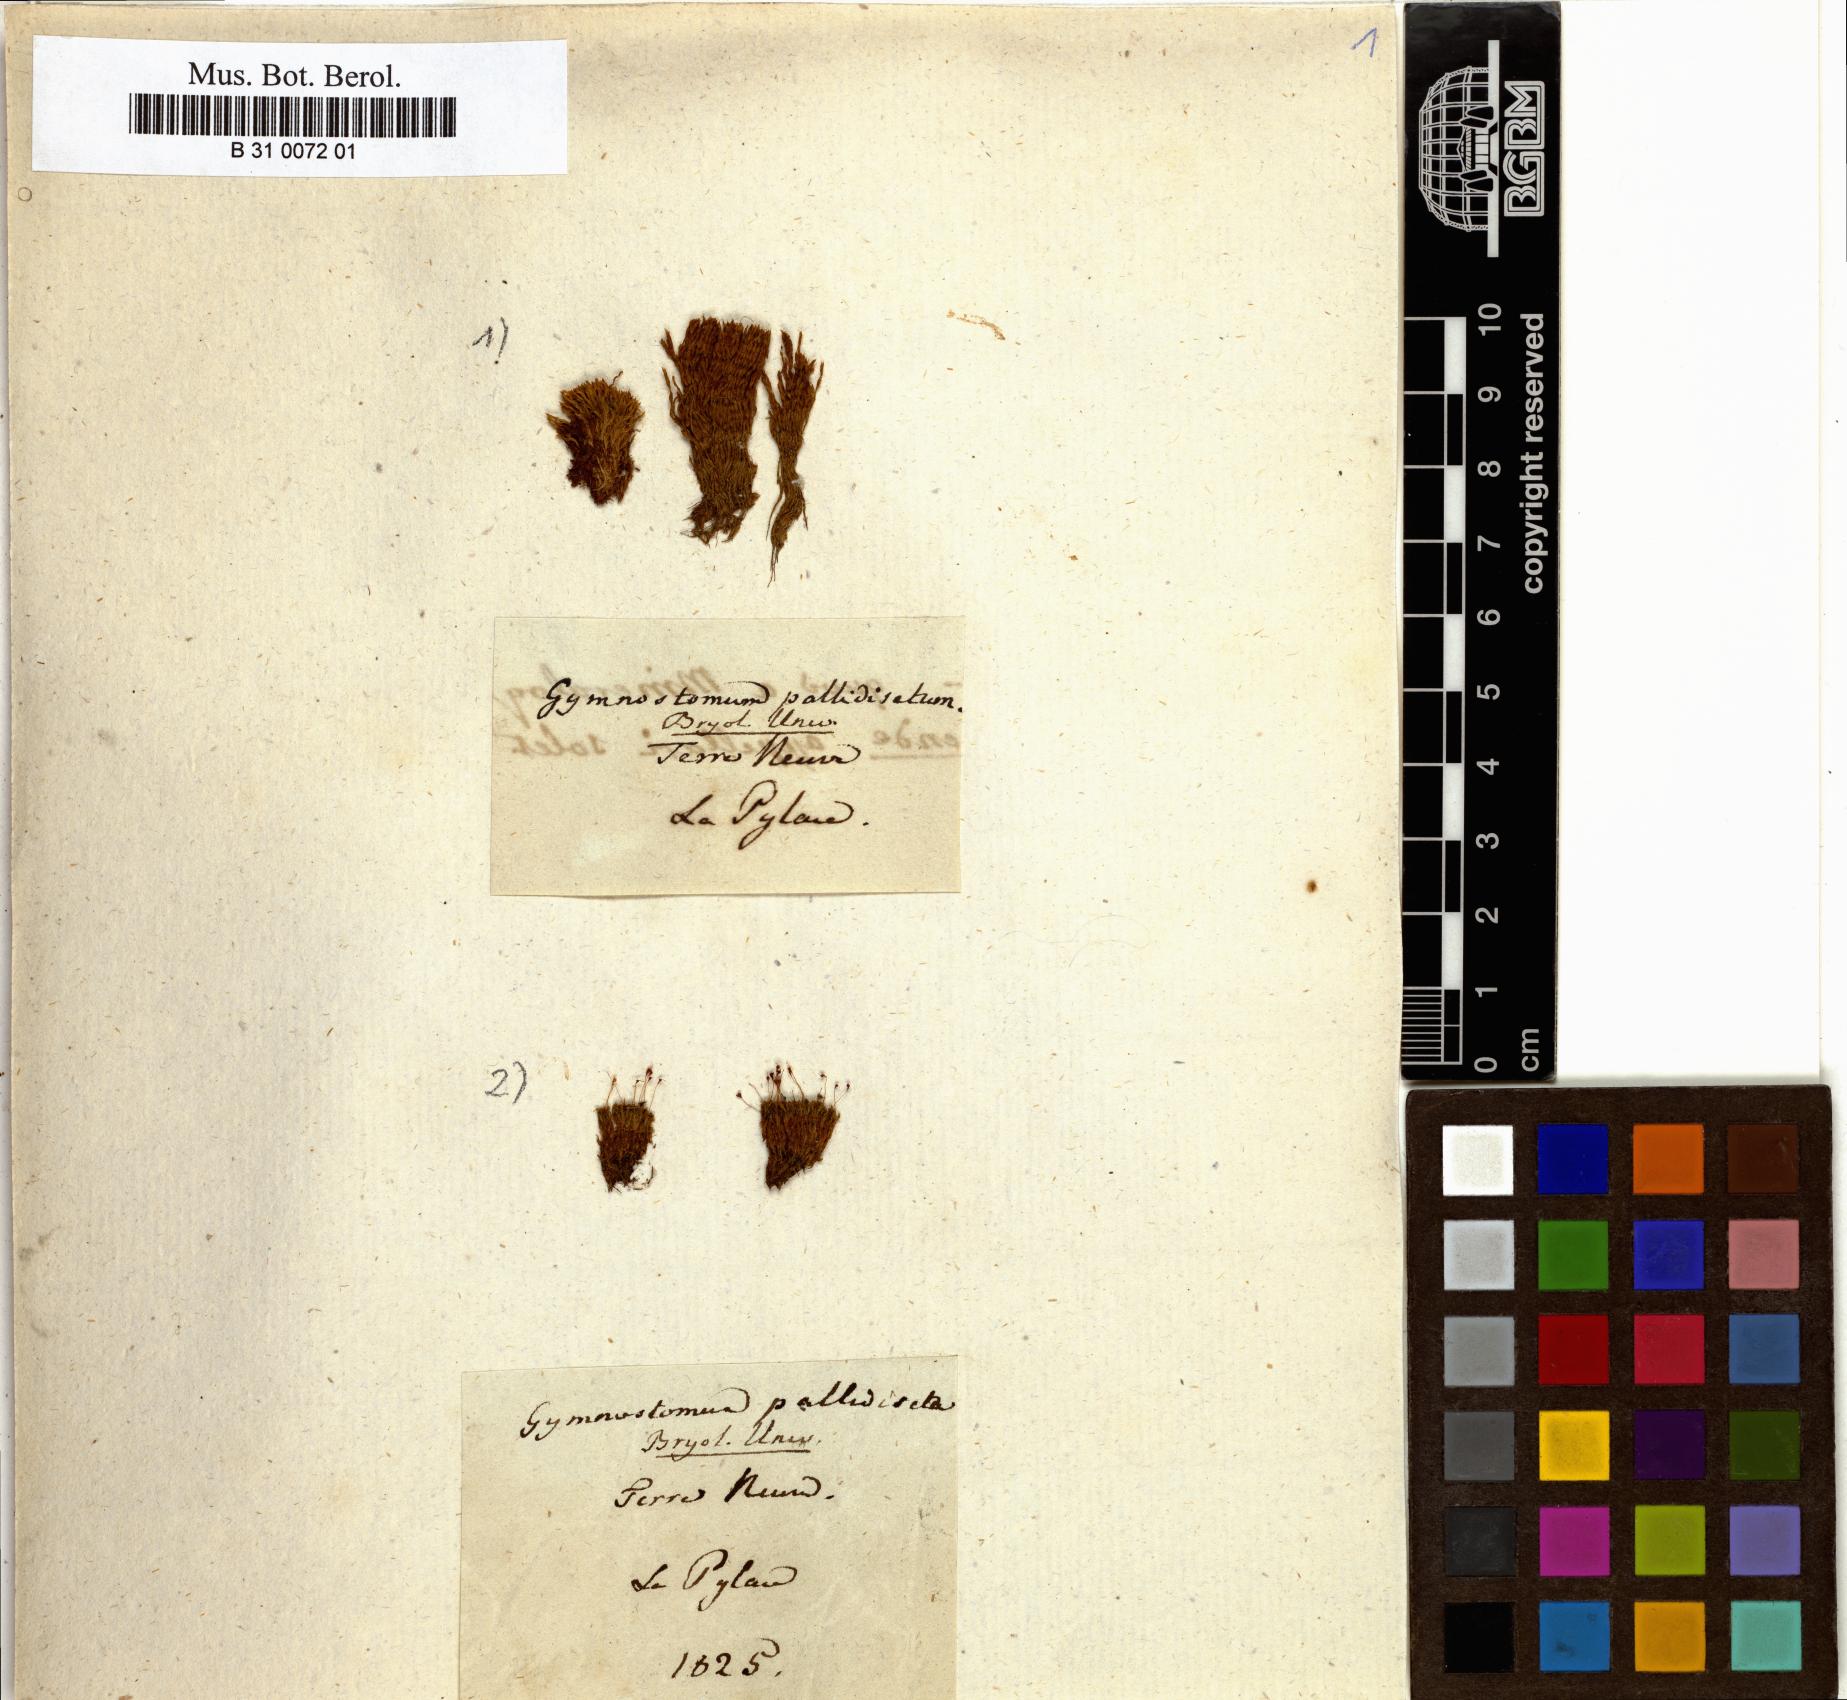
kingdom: Plantae
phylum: Bryophyta
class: Bryopsida
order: Pottiales
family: Pottiaceae
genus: Hymenostylium
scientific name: Hymenostylium recurvirostrum
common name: Hook-beak tufa-moss
